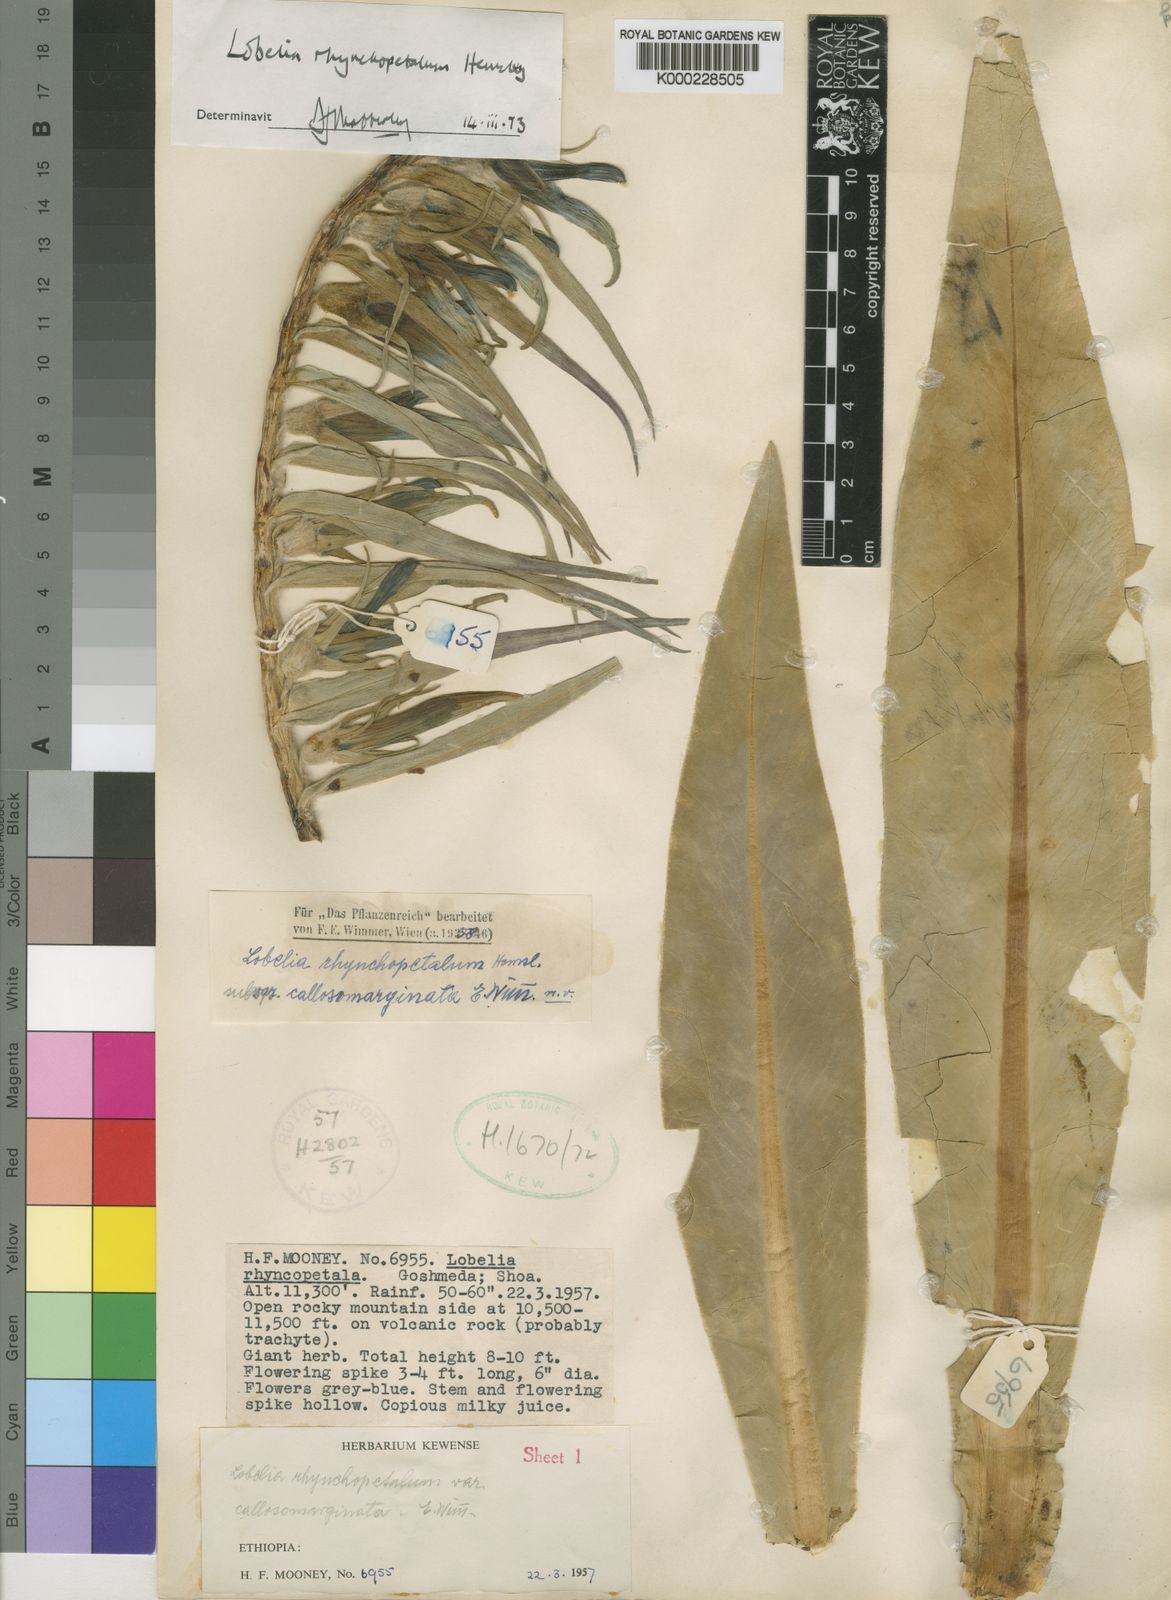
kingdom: Plantae
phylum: Tracheophyta
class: Magnoliopsida
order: Asterales
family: Campanulaceae
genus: Lobelia
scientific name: Lobelia rhynchopetalum
